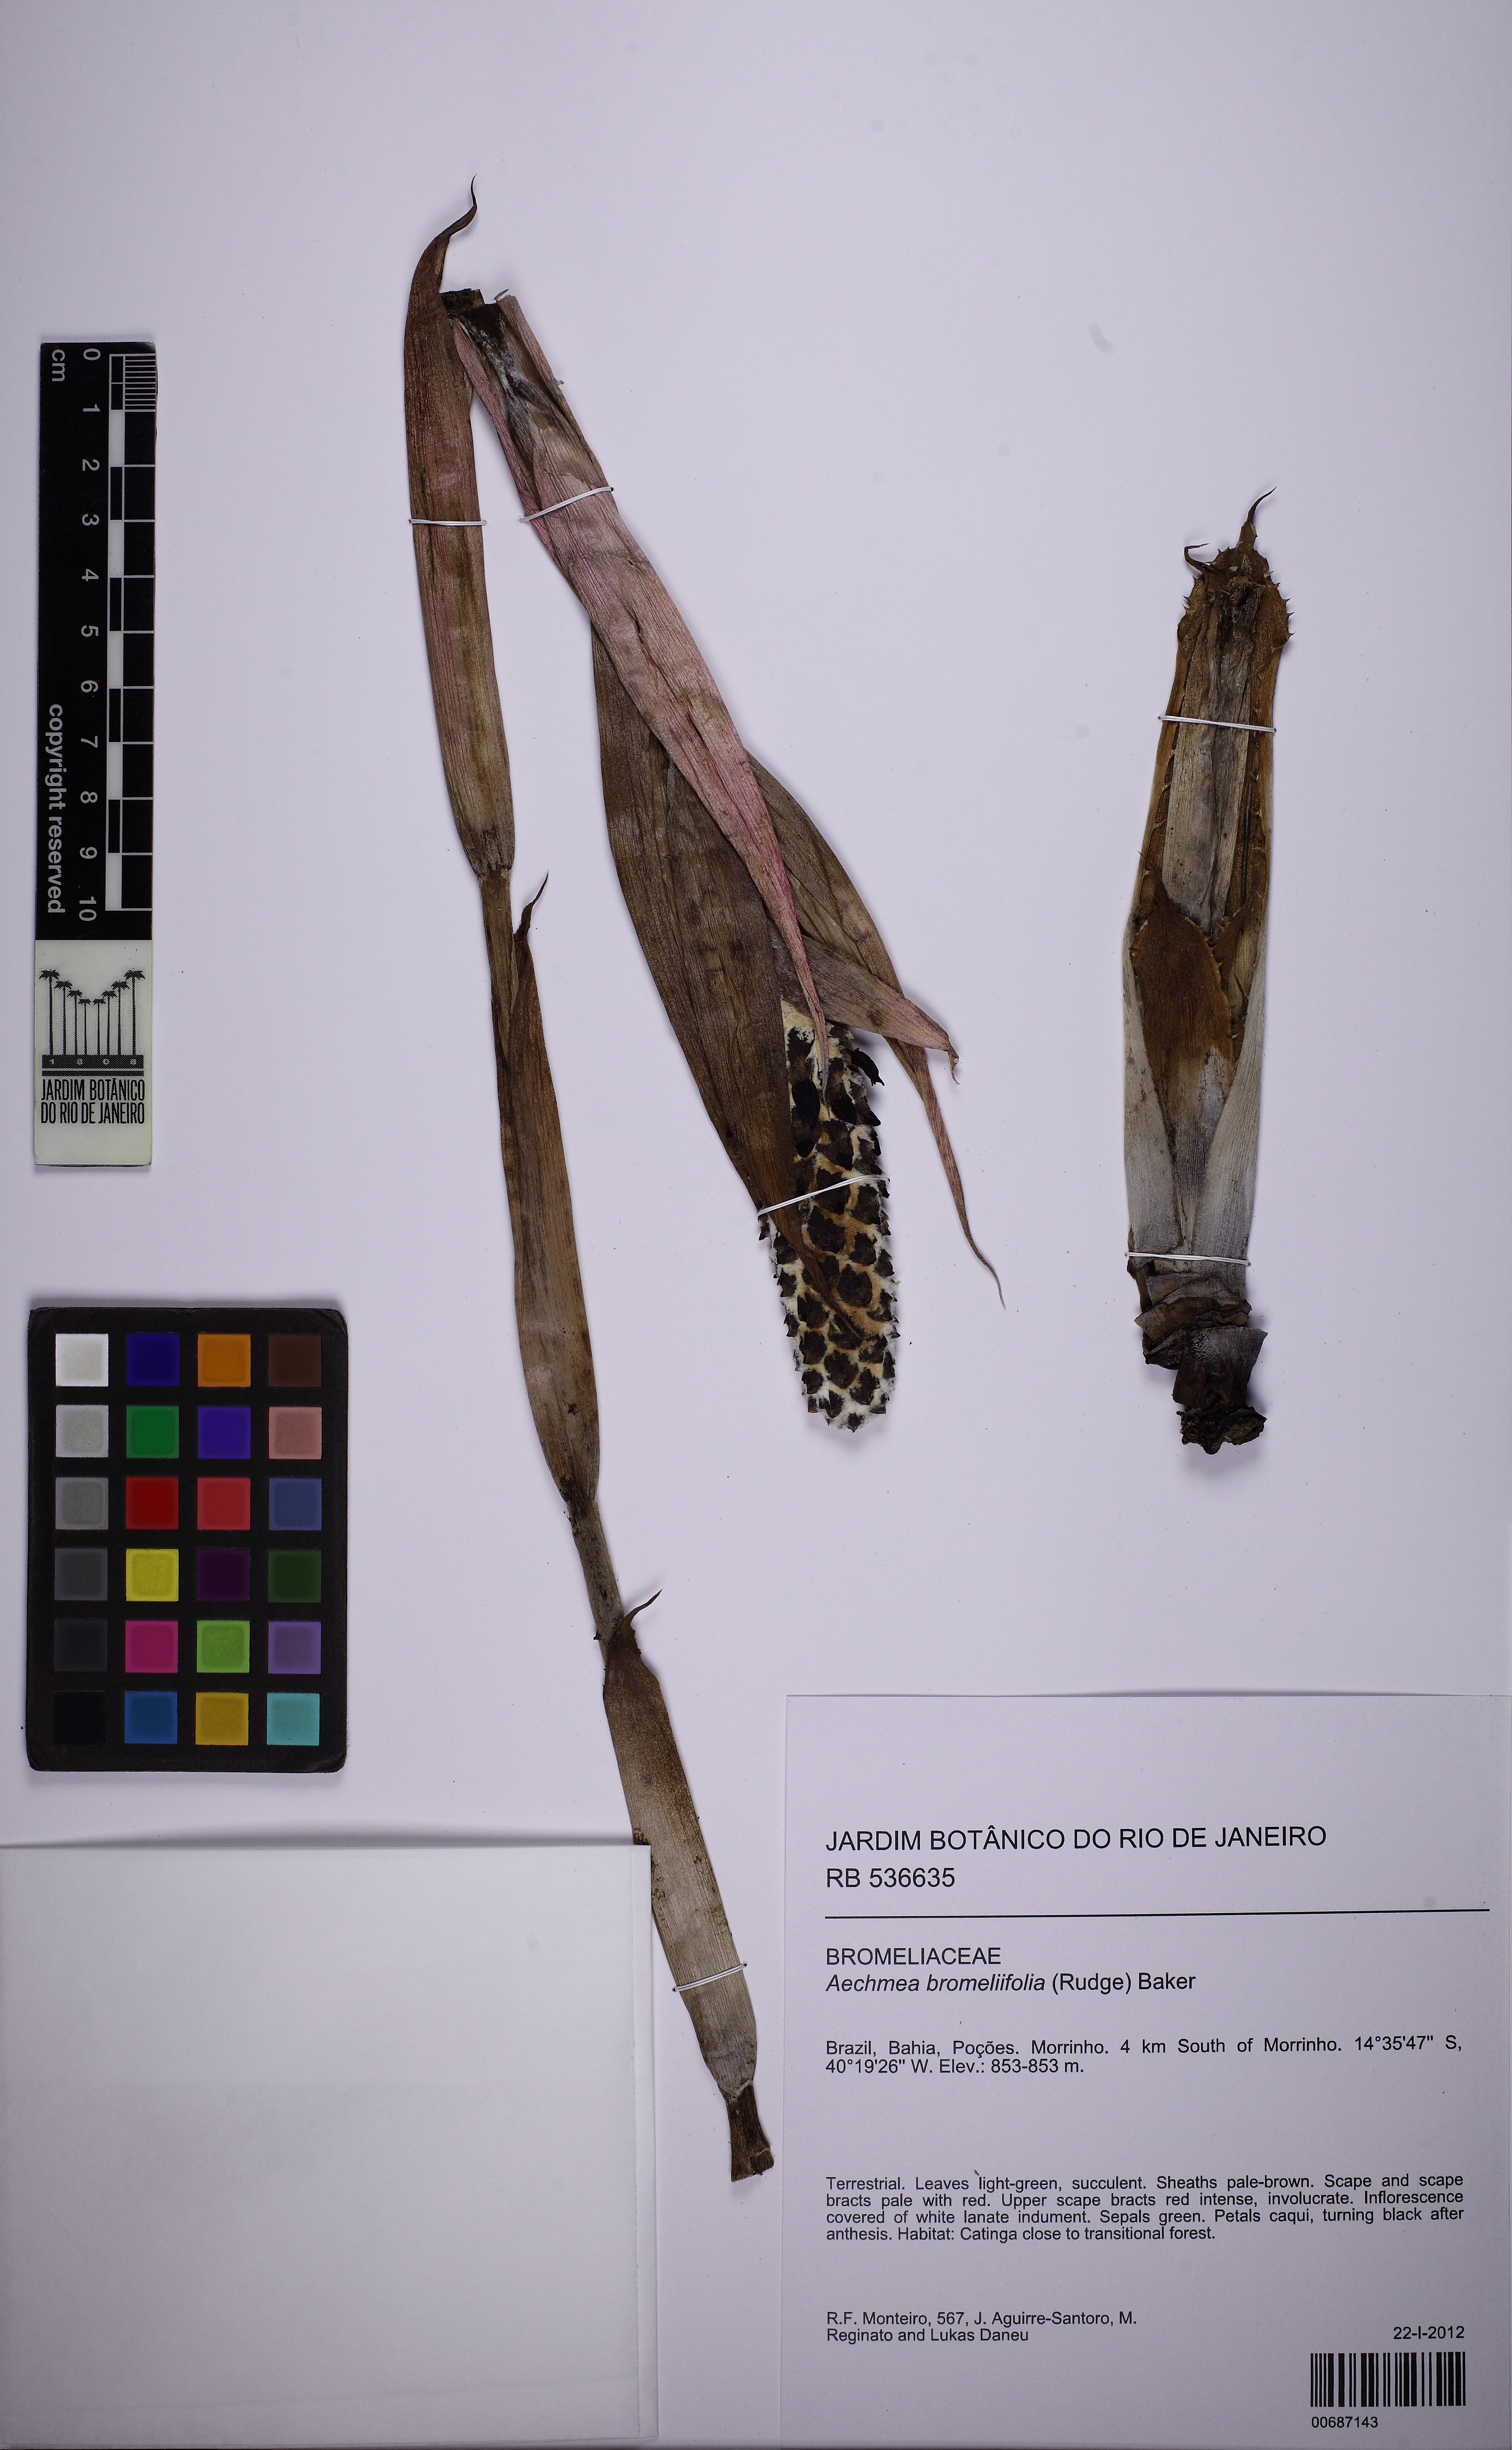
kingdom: Plantae
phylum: Tracheophyta
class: Liliopsida
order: Poales
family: Bromeliaceae
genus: Aechmea
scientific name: Aechmea bromeliifolia
